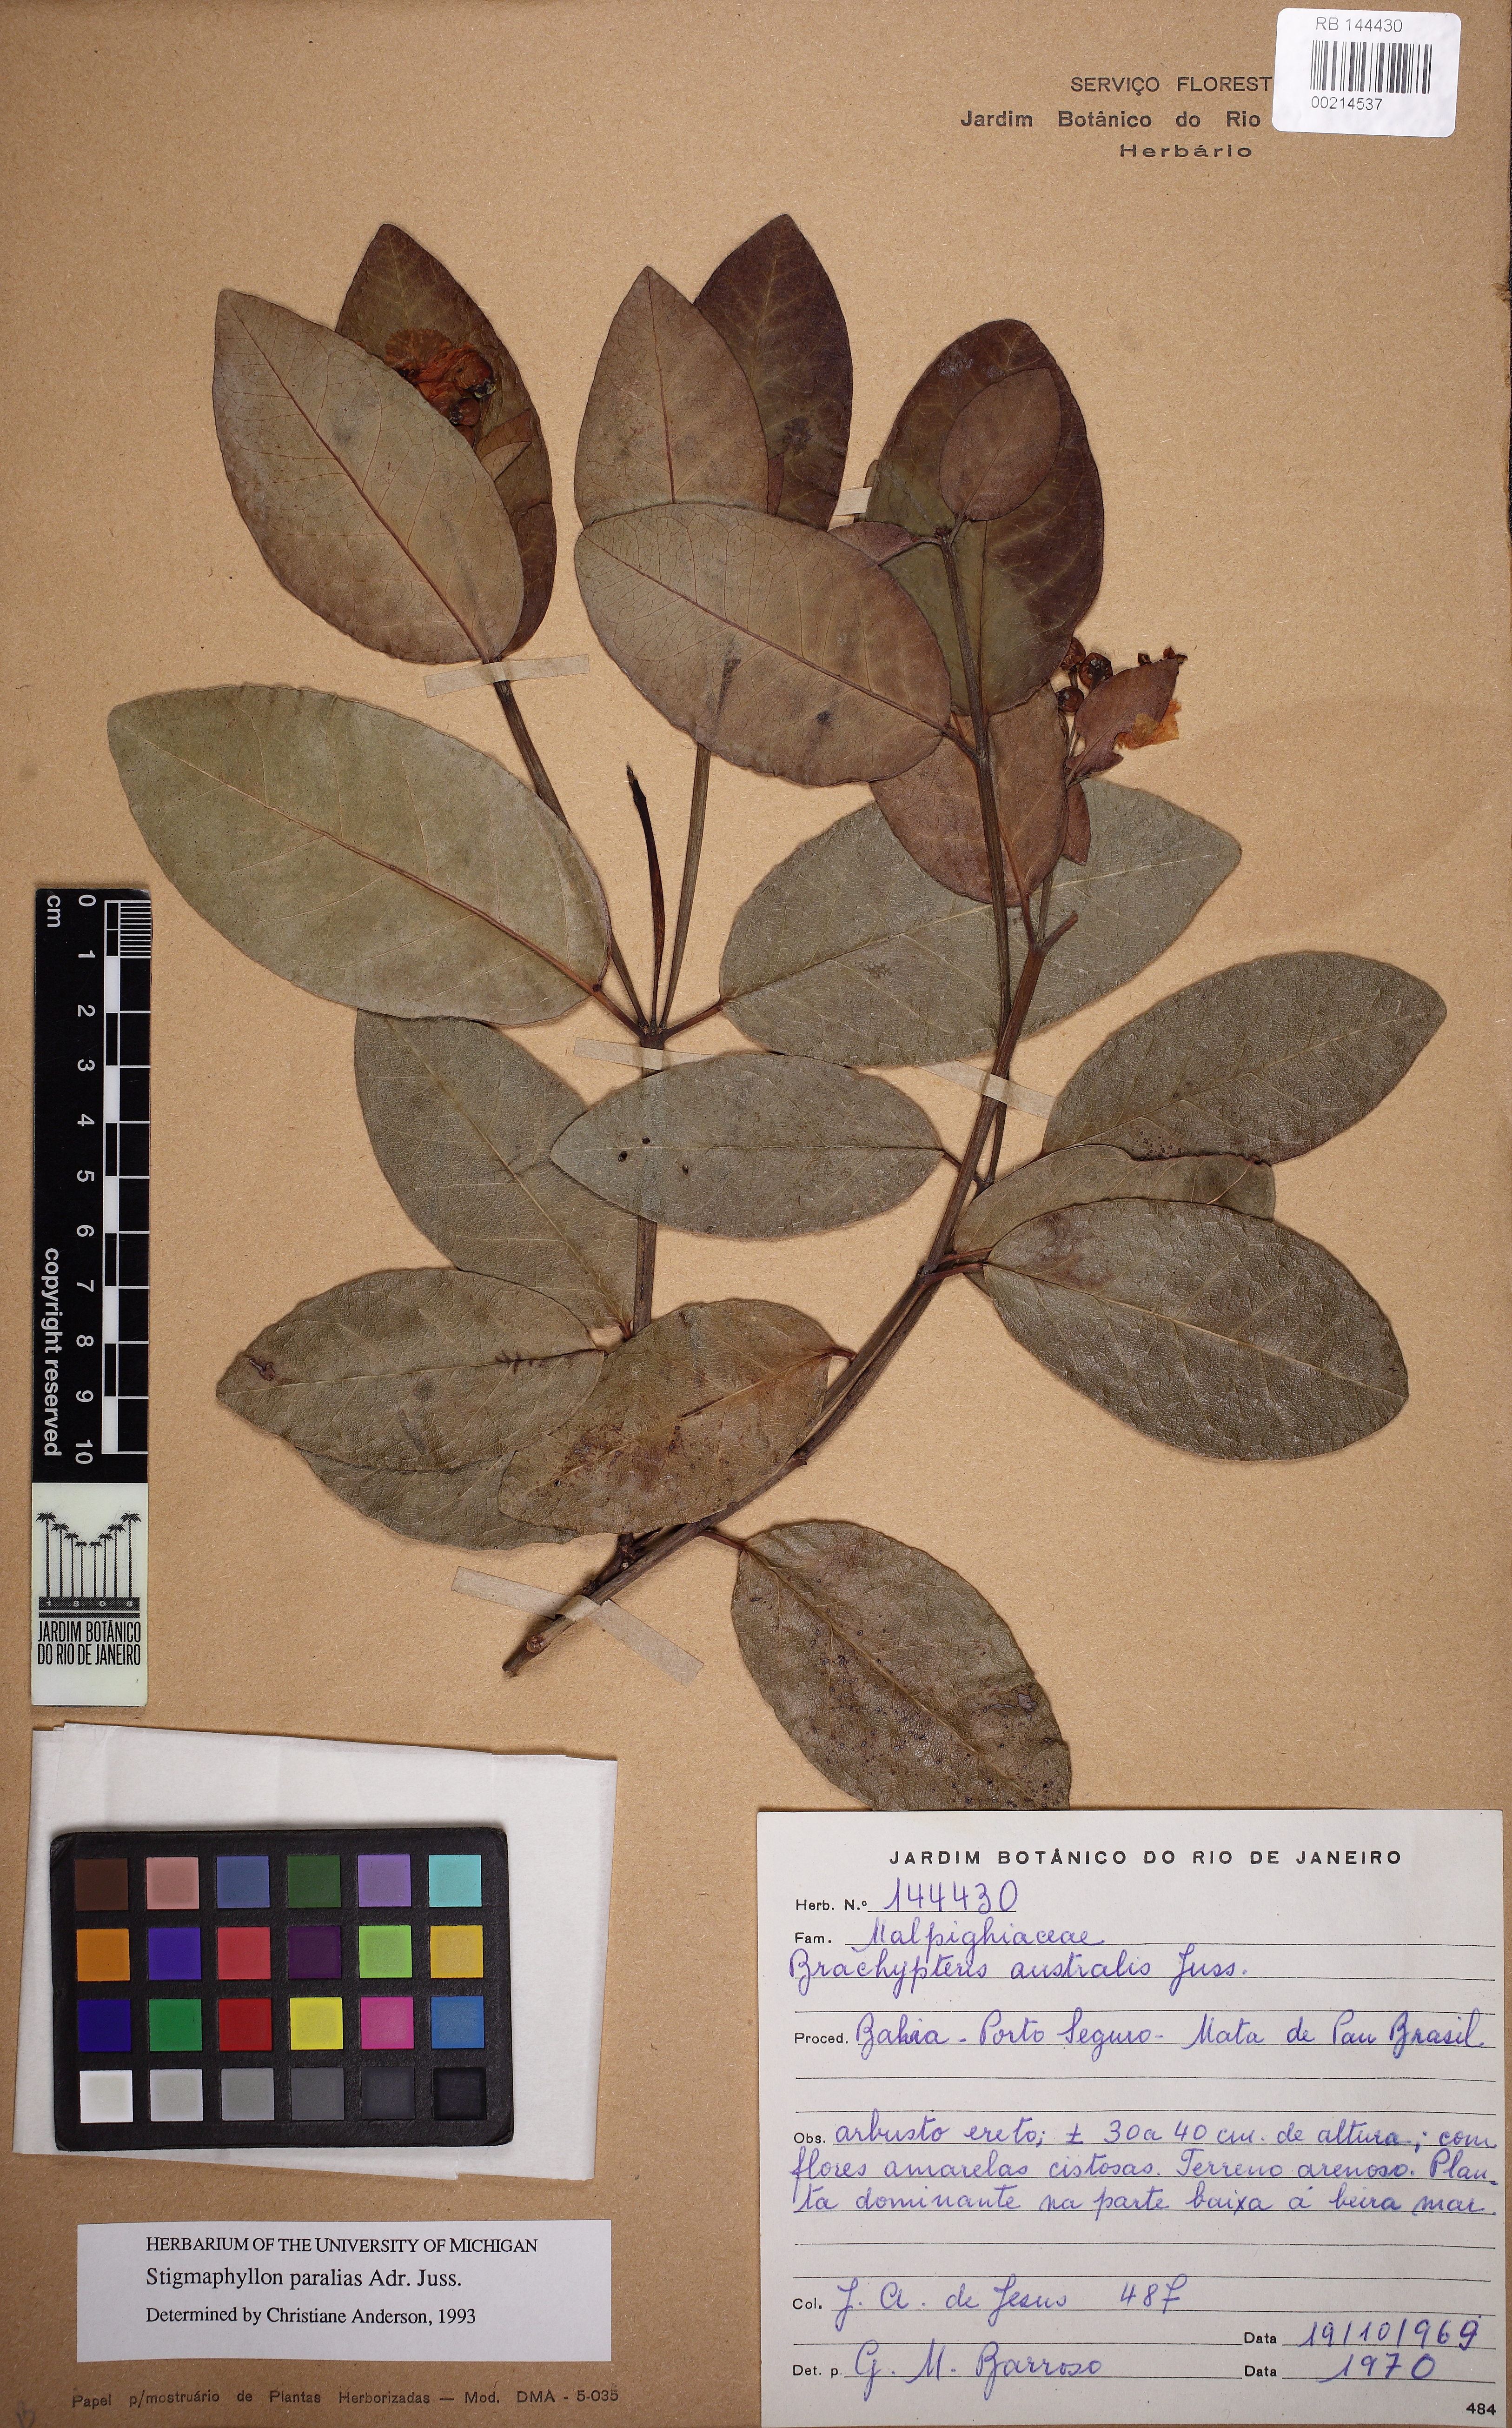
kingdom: Plantae
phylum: Tracheophyta
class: Magnoliopsida
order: Malpighiales
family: Malpighiaceae
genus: Stigmaphyllon
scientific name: Stigmaphyllon paralias
